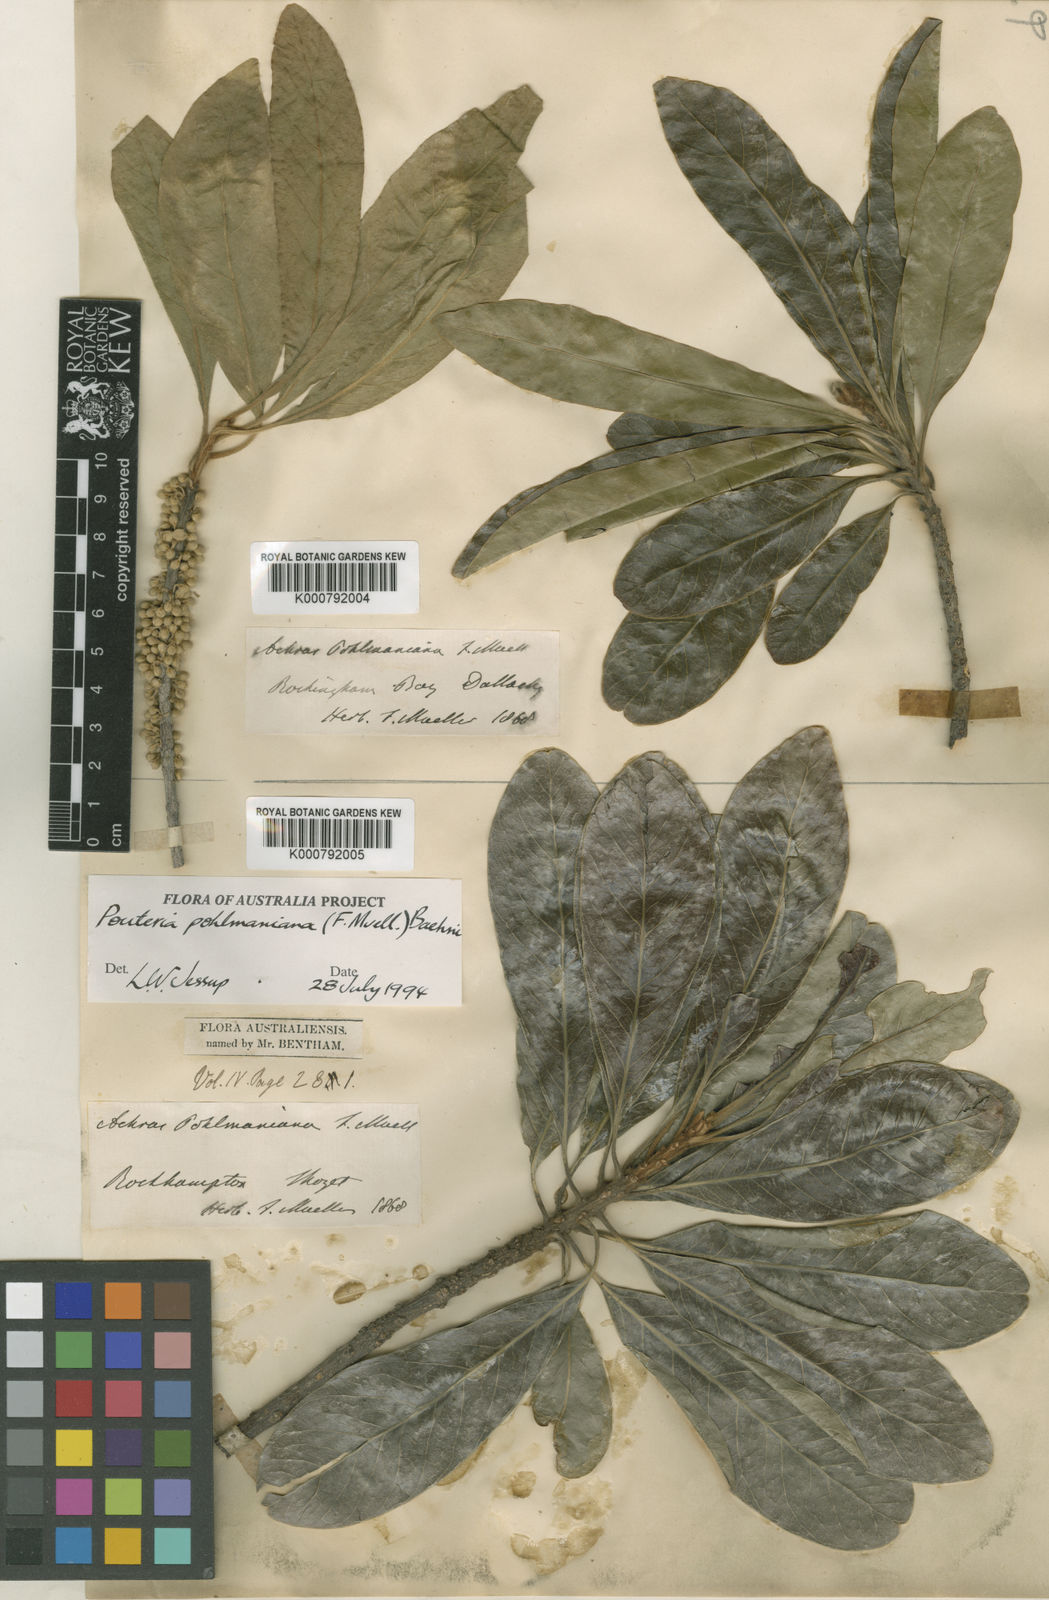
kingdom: Plantae
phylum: Tracheophyta
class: Magnoliopsida
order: Ericales
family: Sapotaceae
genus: Planchonella
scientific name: Planchonella pohlmaniana
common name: Yellow boxwood
